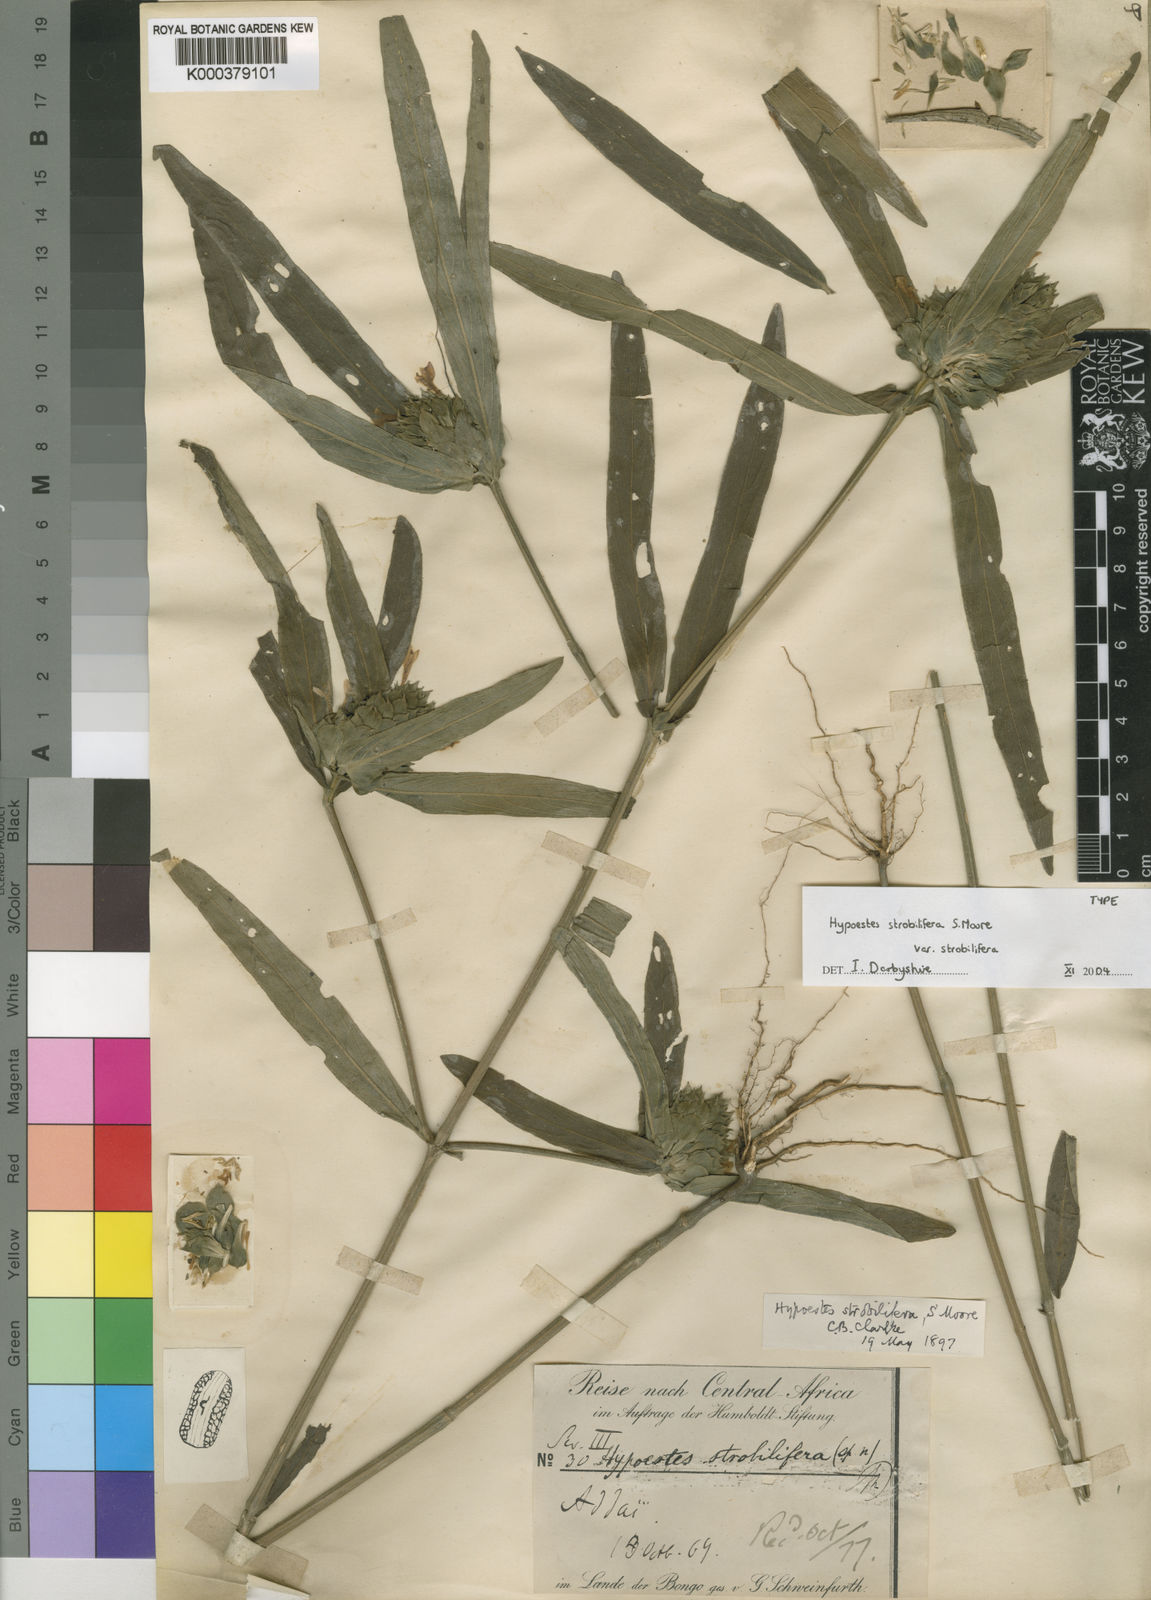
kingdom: Plantae
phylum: Tracheophyta
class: Magnoliopsida
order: Lamiales
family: Acanthaceae
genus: Hypoestes
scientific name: Hypoestes strobilifera
